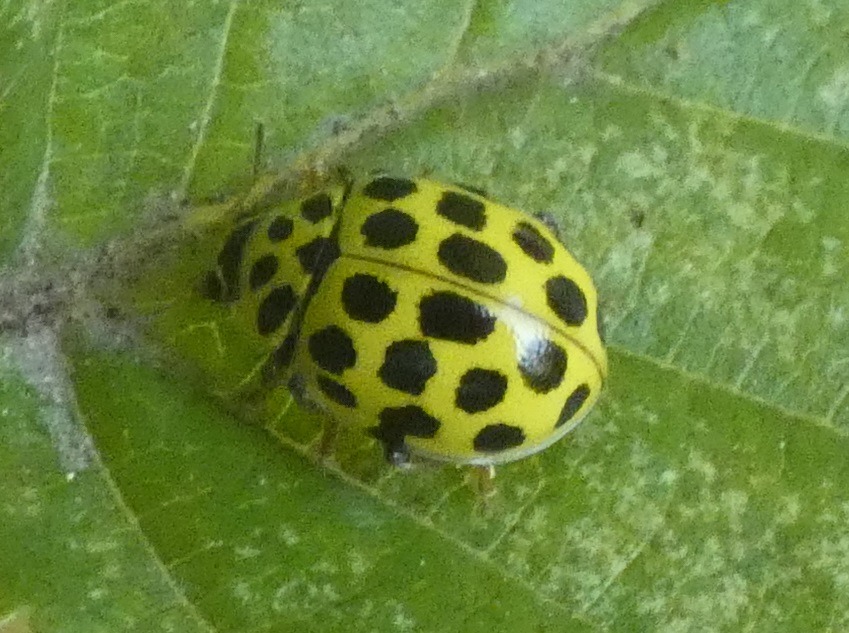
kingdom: Animalia
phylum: Arthropoda
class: Insecta
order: Coleoptera
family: Coccinellidae
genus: Psyllobora
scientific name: Psyllobora vigintiduopunctata
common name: Toogtyveplettet mariehøne
